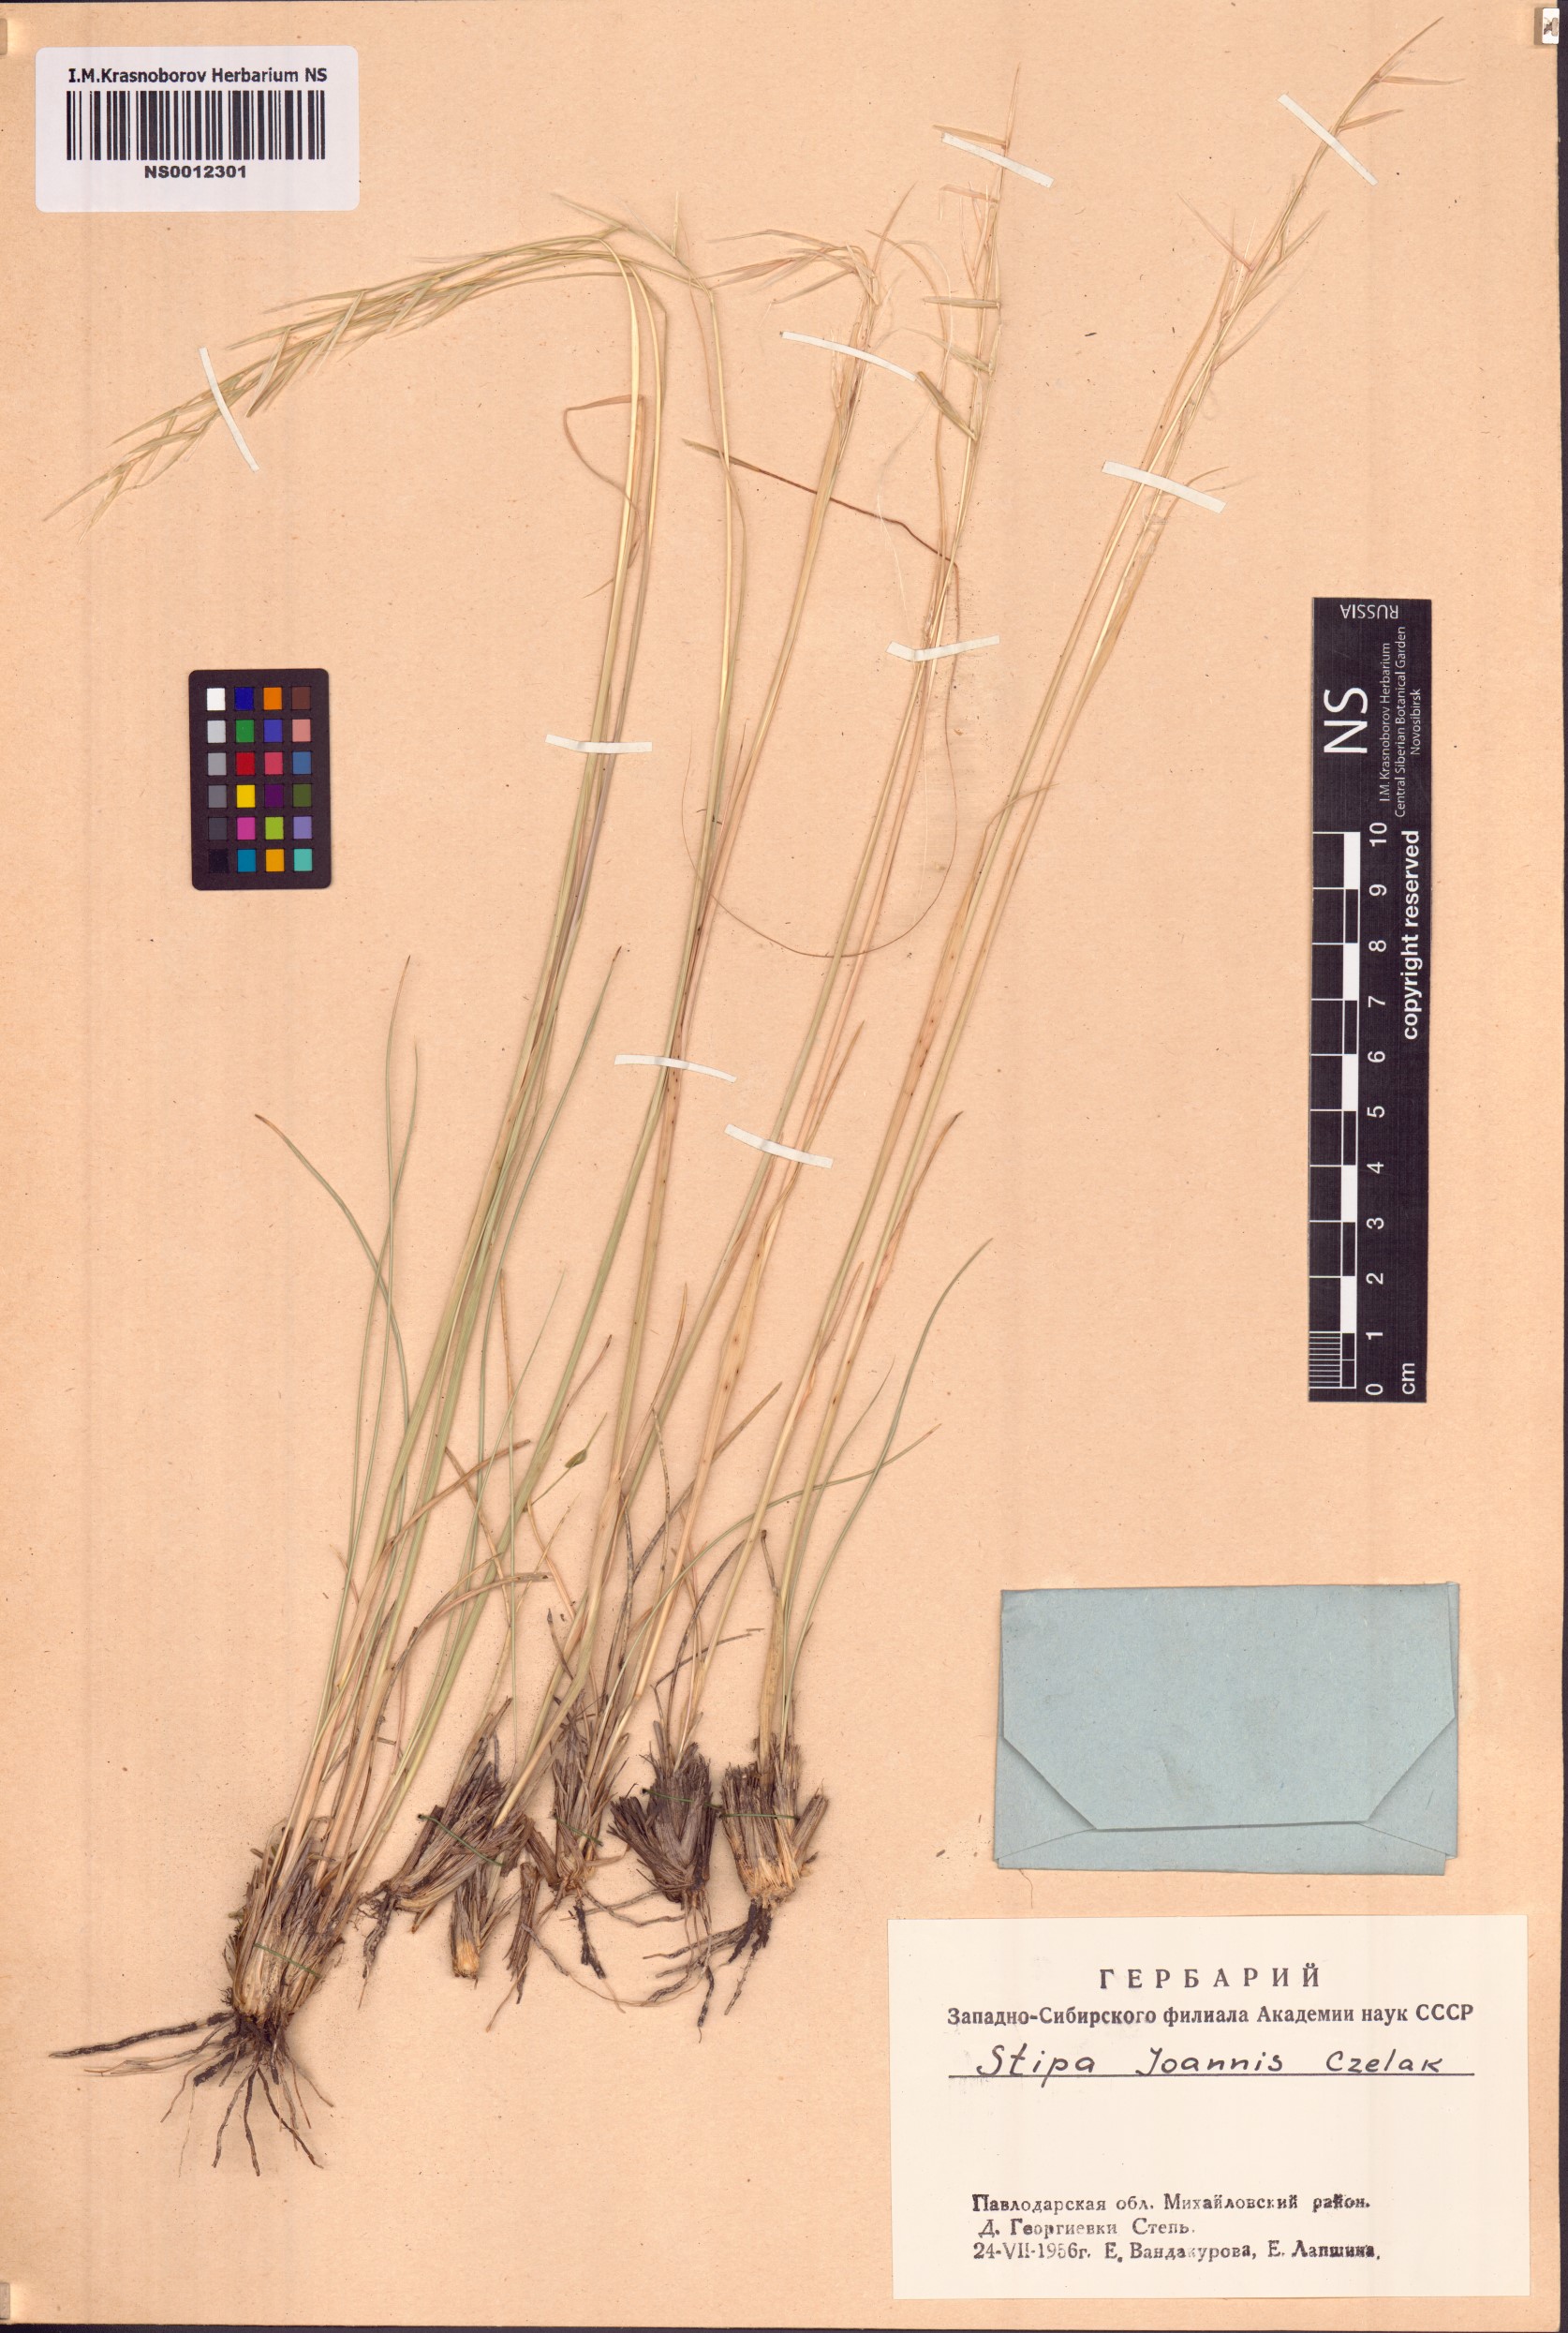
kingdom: Plantae
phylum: Tracheophyta
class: Liliopsida
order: Poales
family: Poaceae
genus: Stipa
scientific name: Stipa pennata
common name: European feather grass
